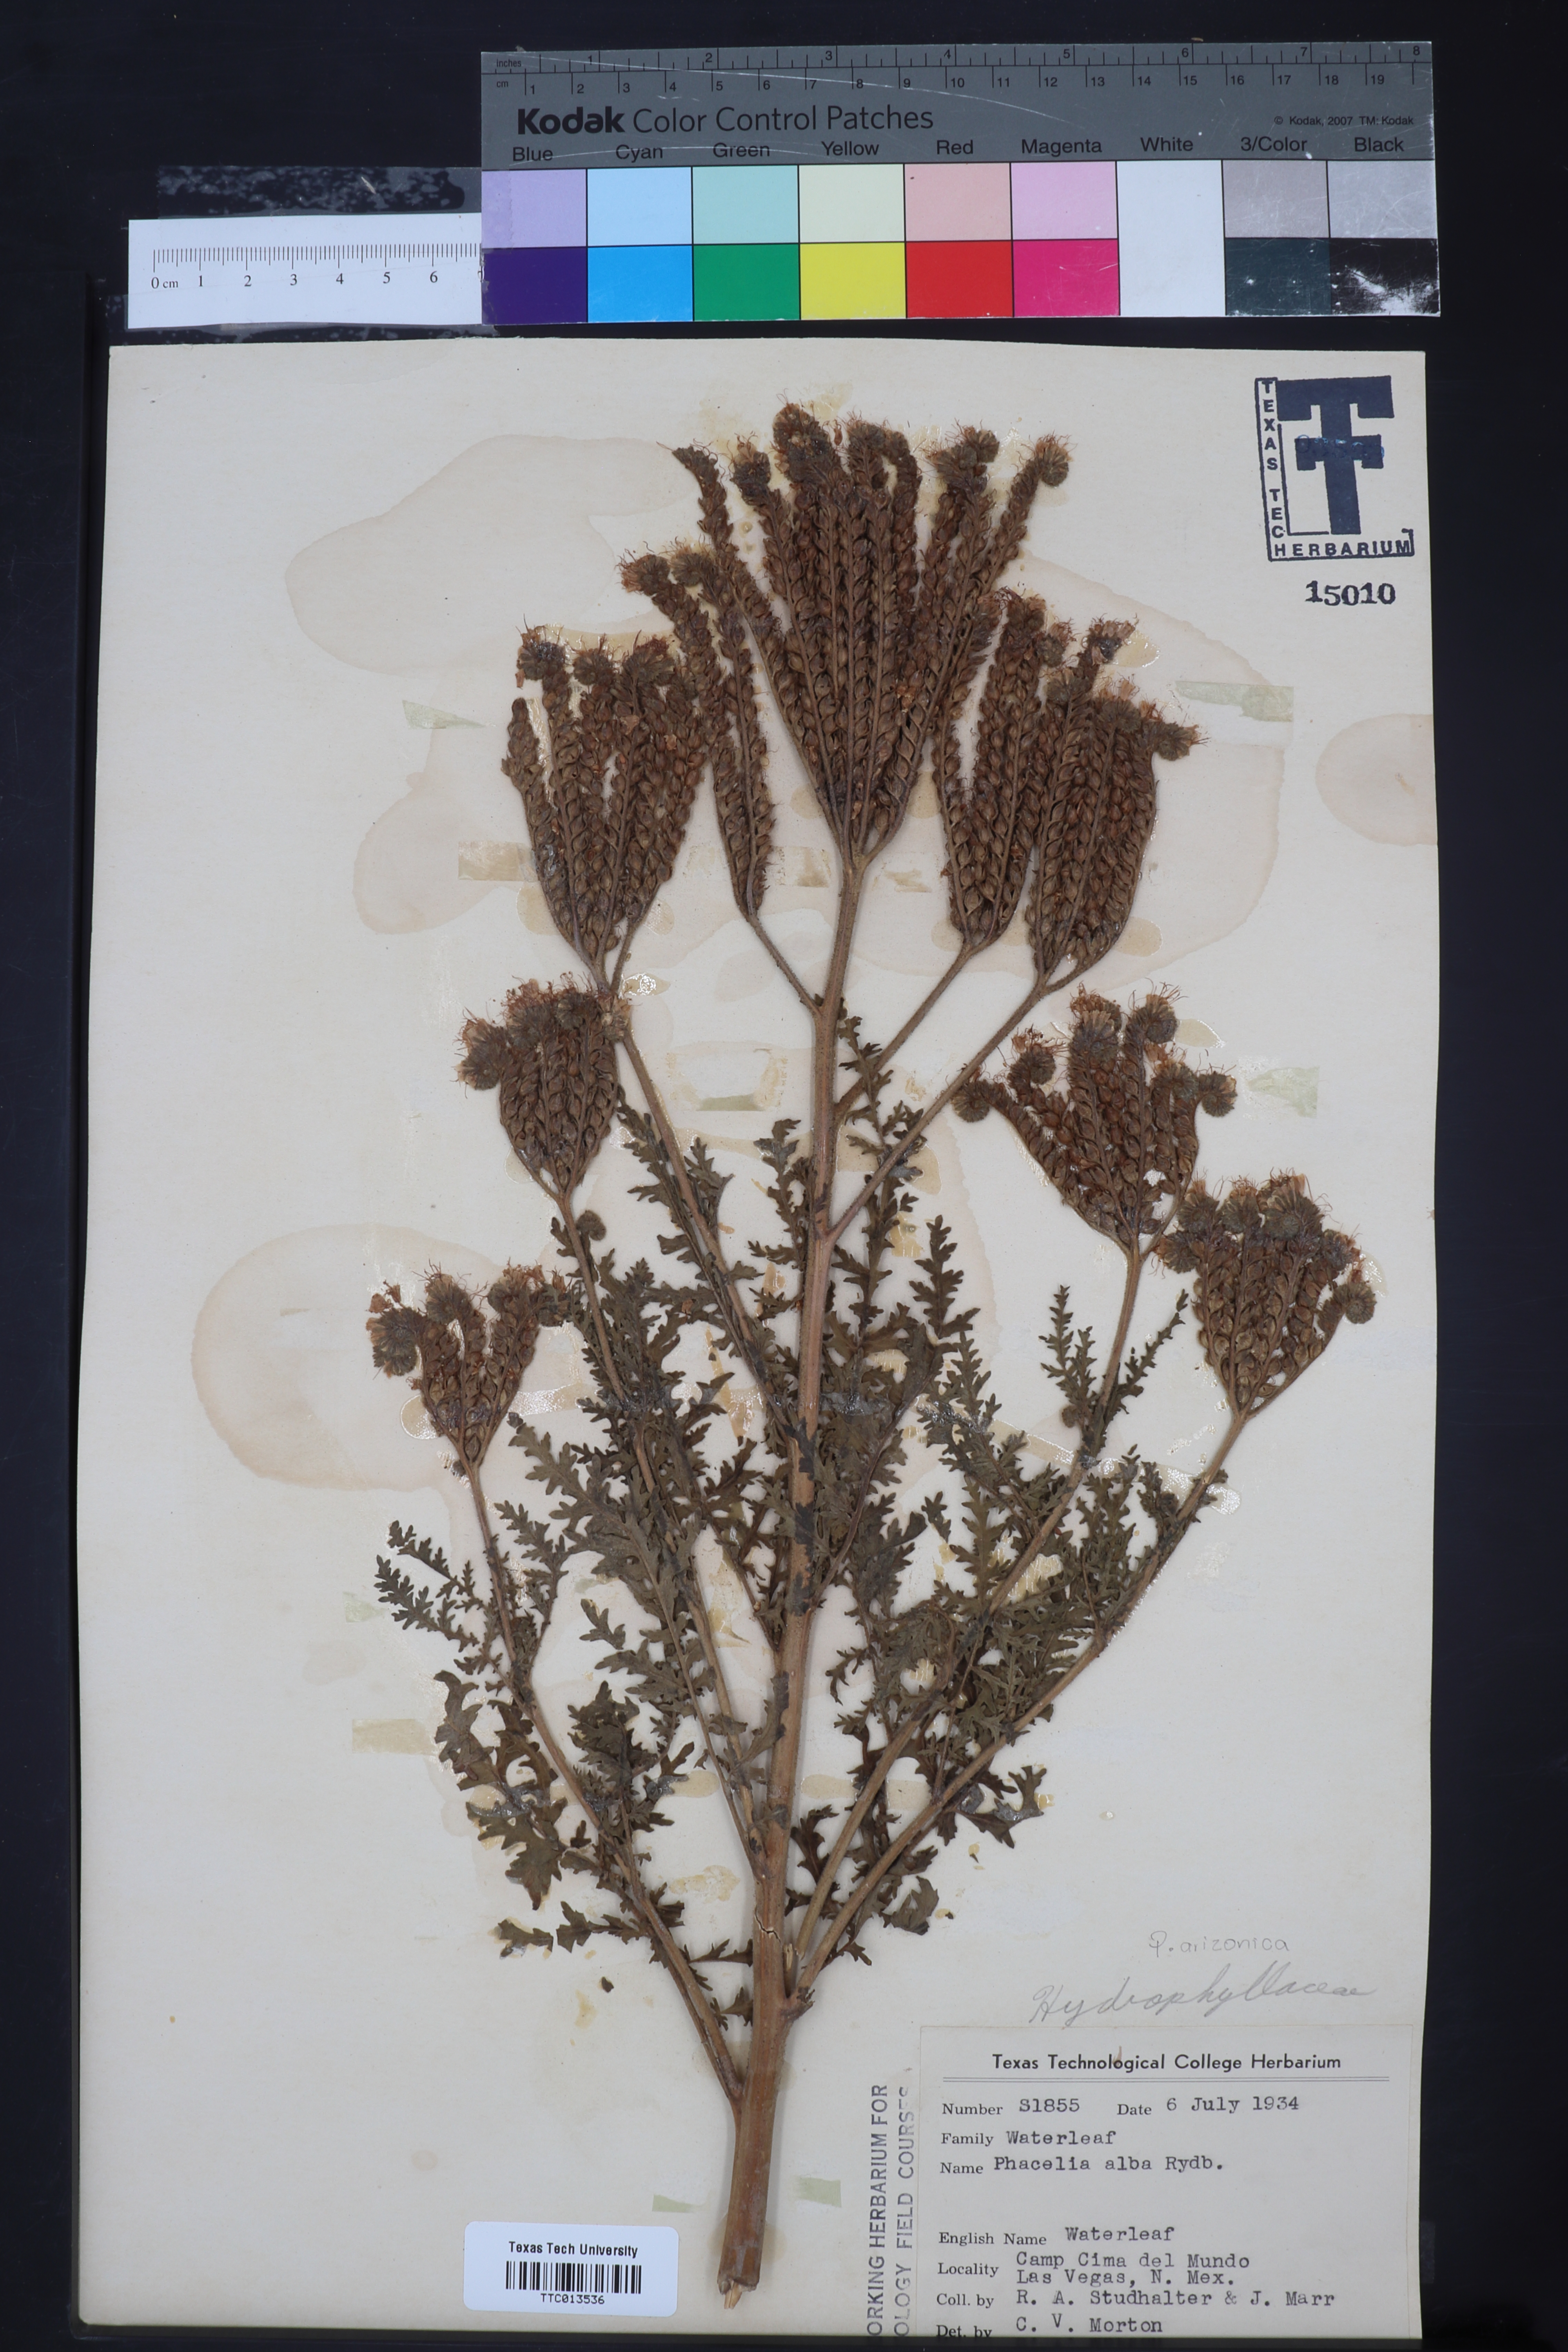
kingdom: Plantae
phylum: Tracheophyta
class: Magnoliopsida
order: Boraginales
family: Hydrophyllaceae
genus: Phacelia
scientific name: Phacelia alba
